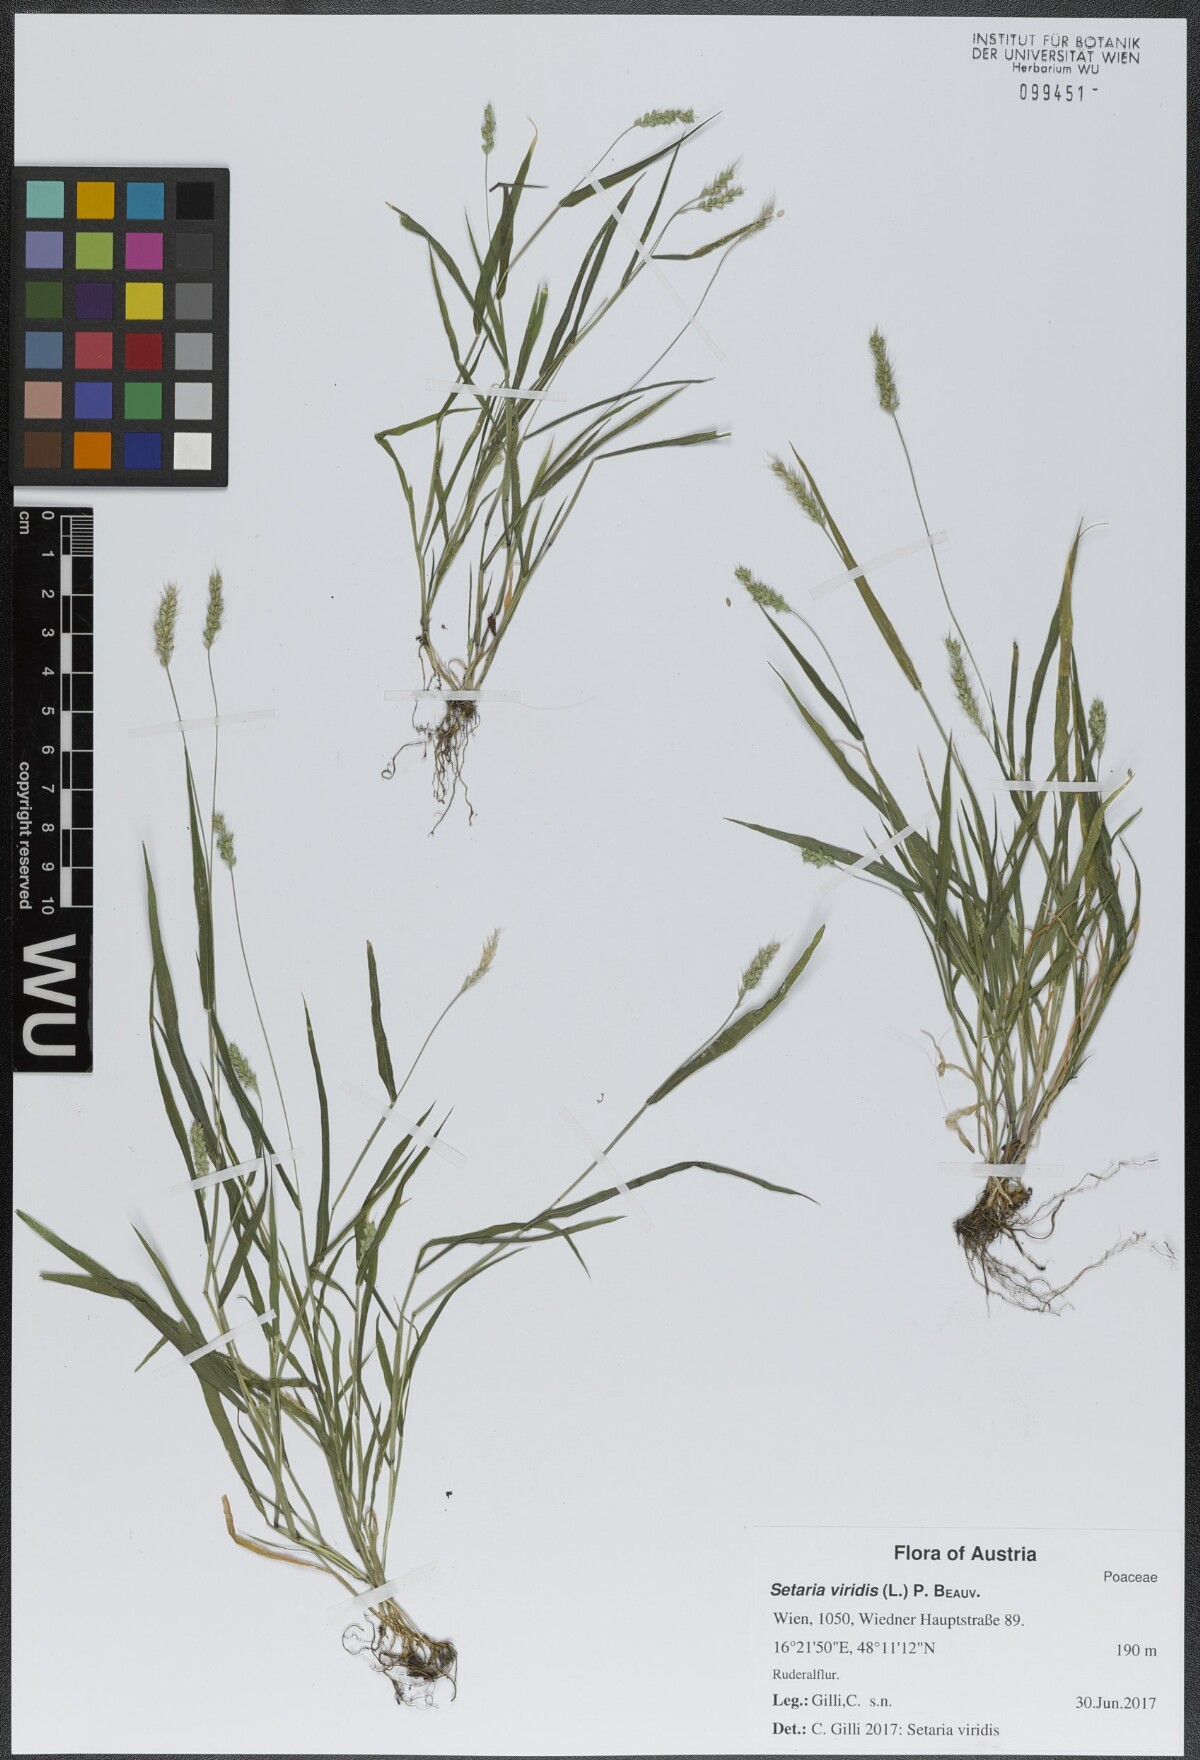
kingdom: Plantae
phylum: Tracheophyta
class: Liliopsida
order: Poales
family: Poaceae
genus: Setaria
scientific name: Setaria viridis
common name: Green bristlegrass
